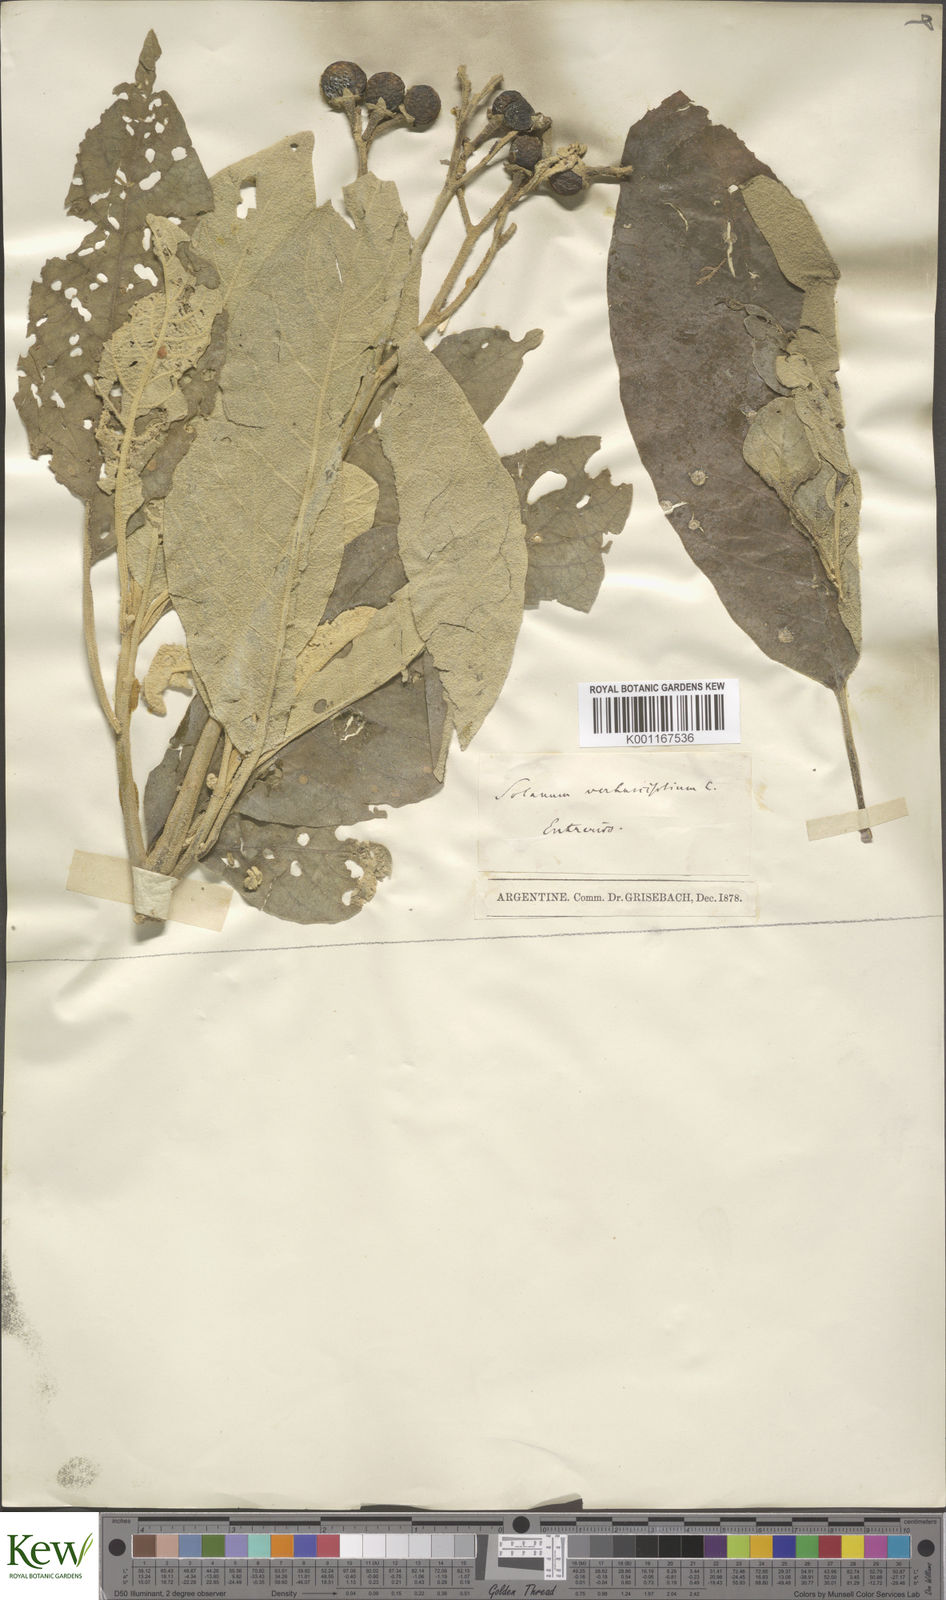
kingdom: Plantae
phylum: Tracheophyta
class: Magnoliopsida
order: Solanales
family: Solanaceae
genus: Solanum
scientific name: Solanum erianthum
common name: Tobacco-tree
